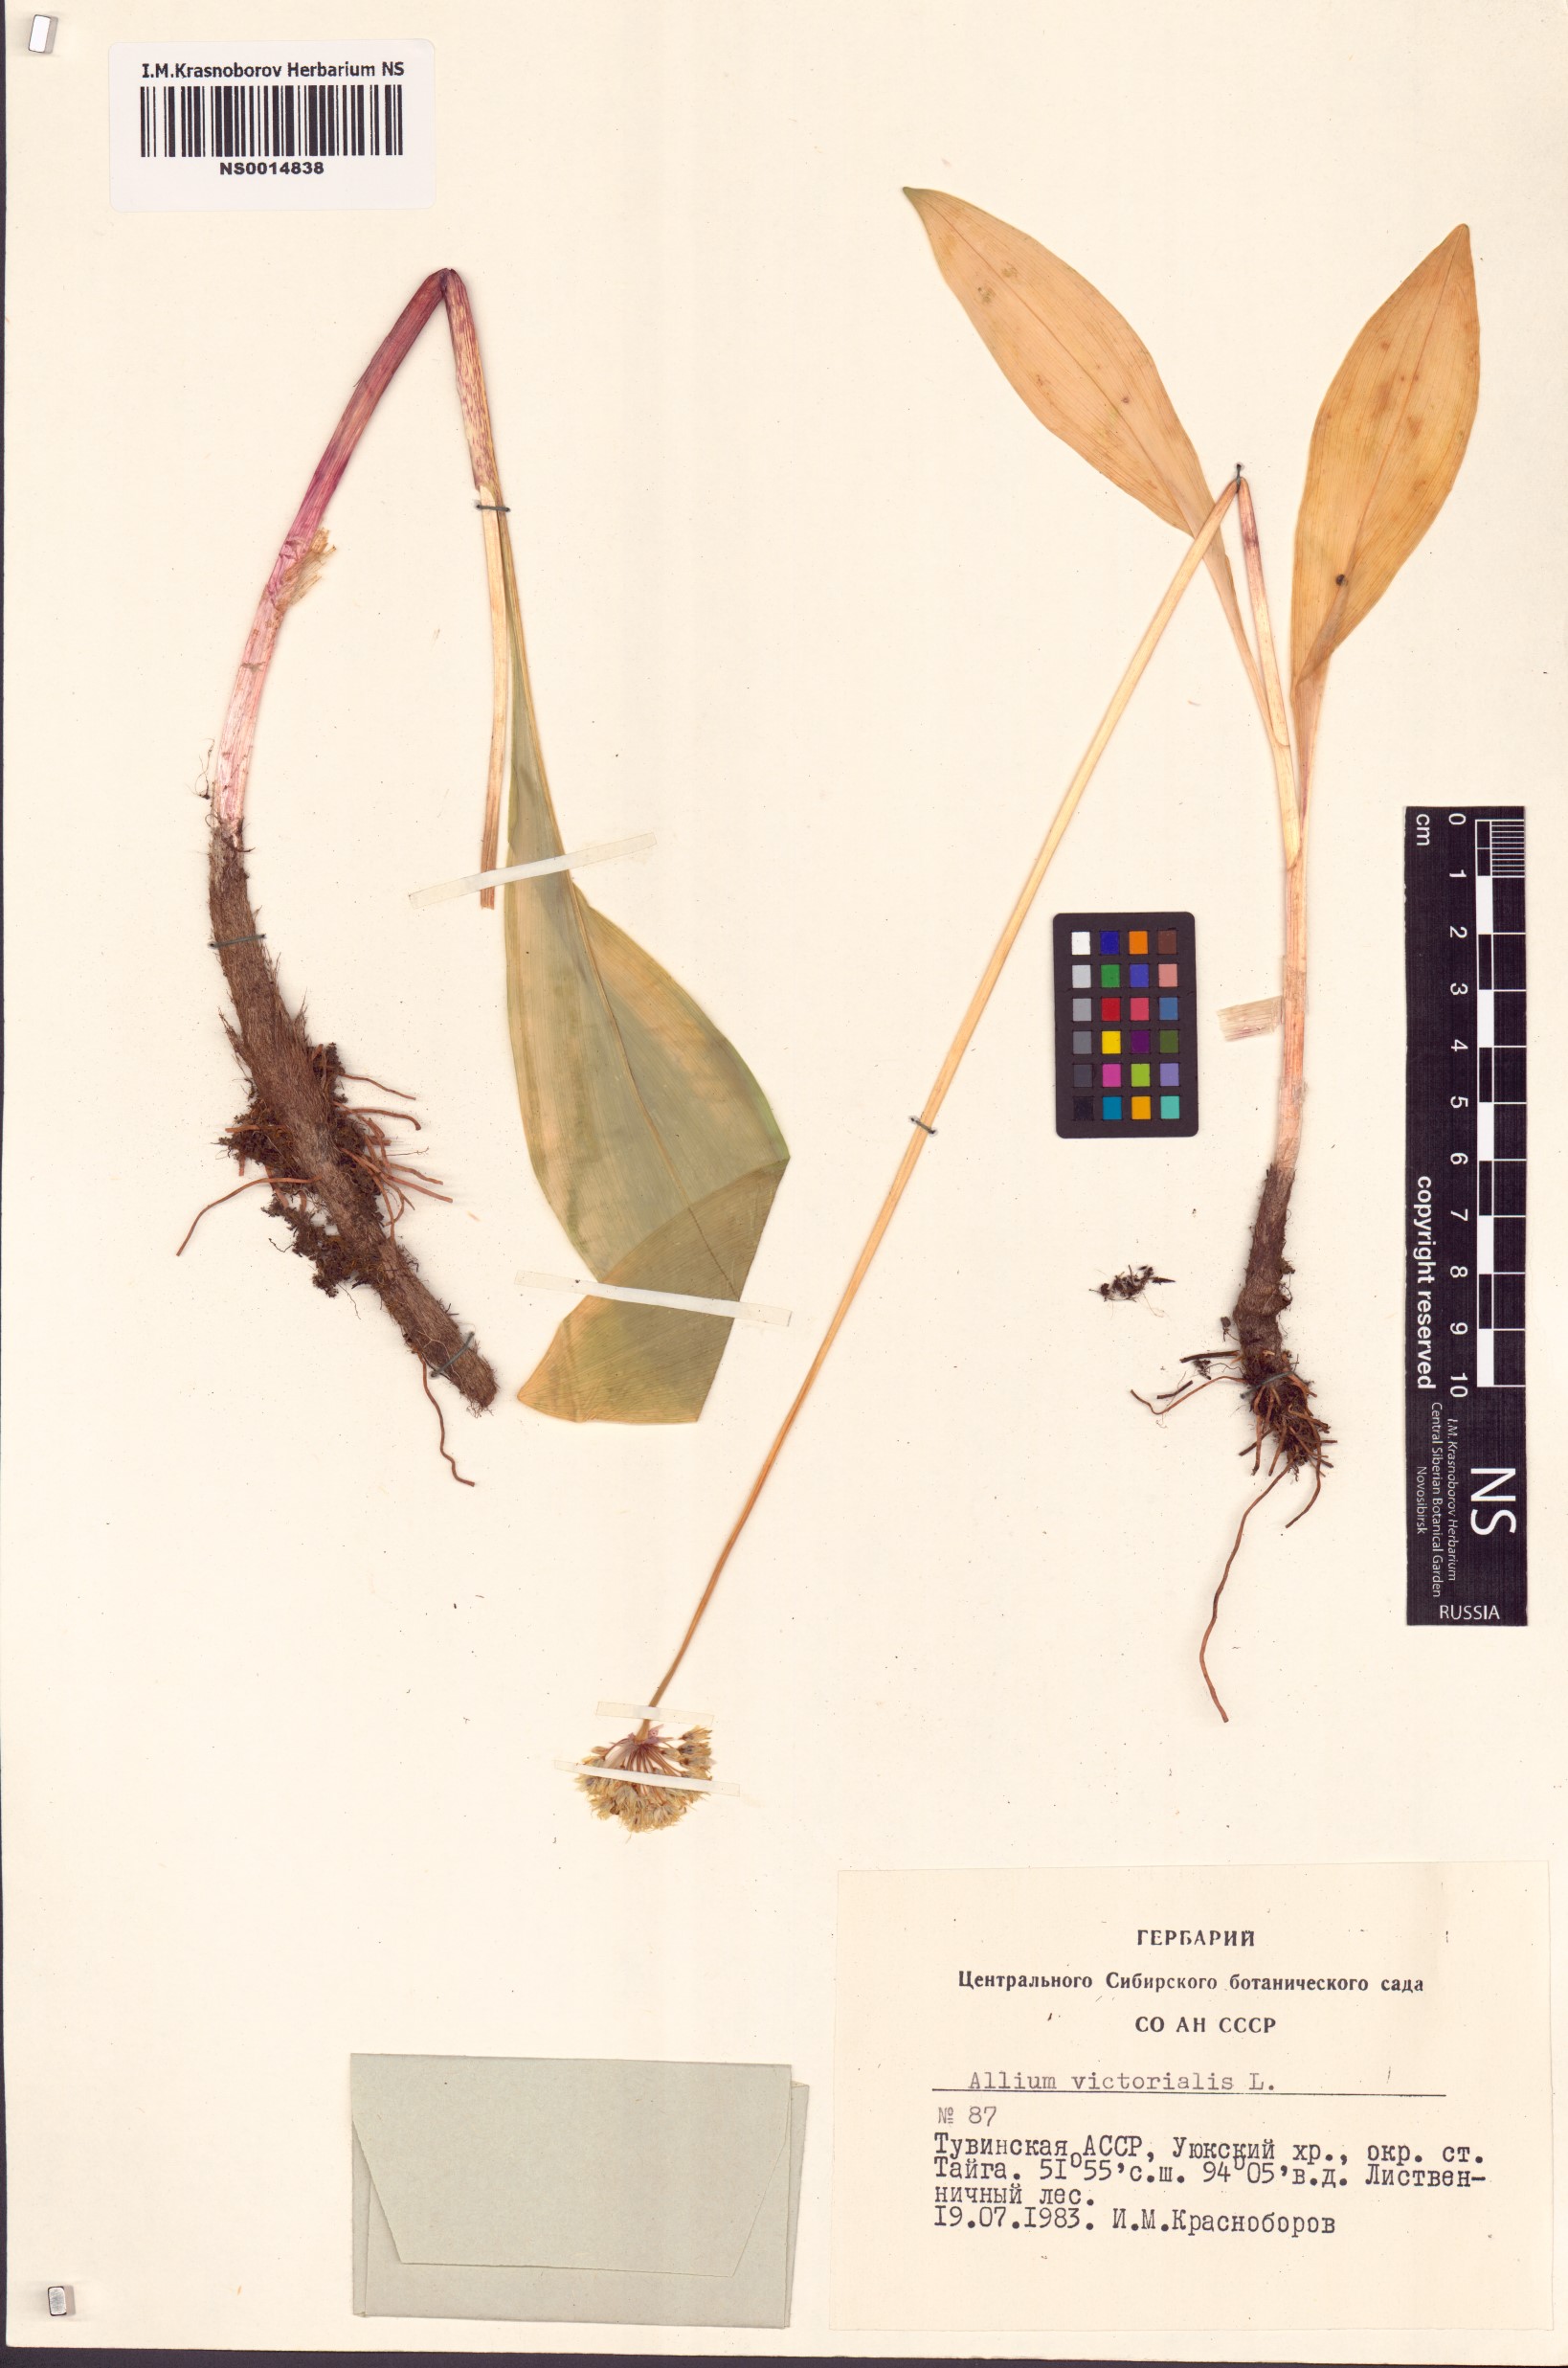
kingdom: Plantae
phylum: Tracheophyta
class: Liliopsida
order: Asparagales
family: Amaryllidaceae
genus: Allium
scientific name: Allium victorialis
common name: Alpine leek
